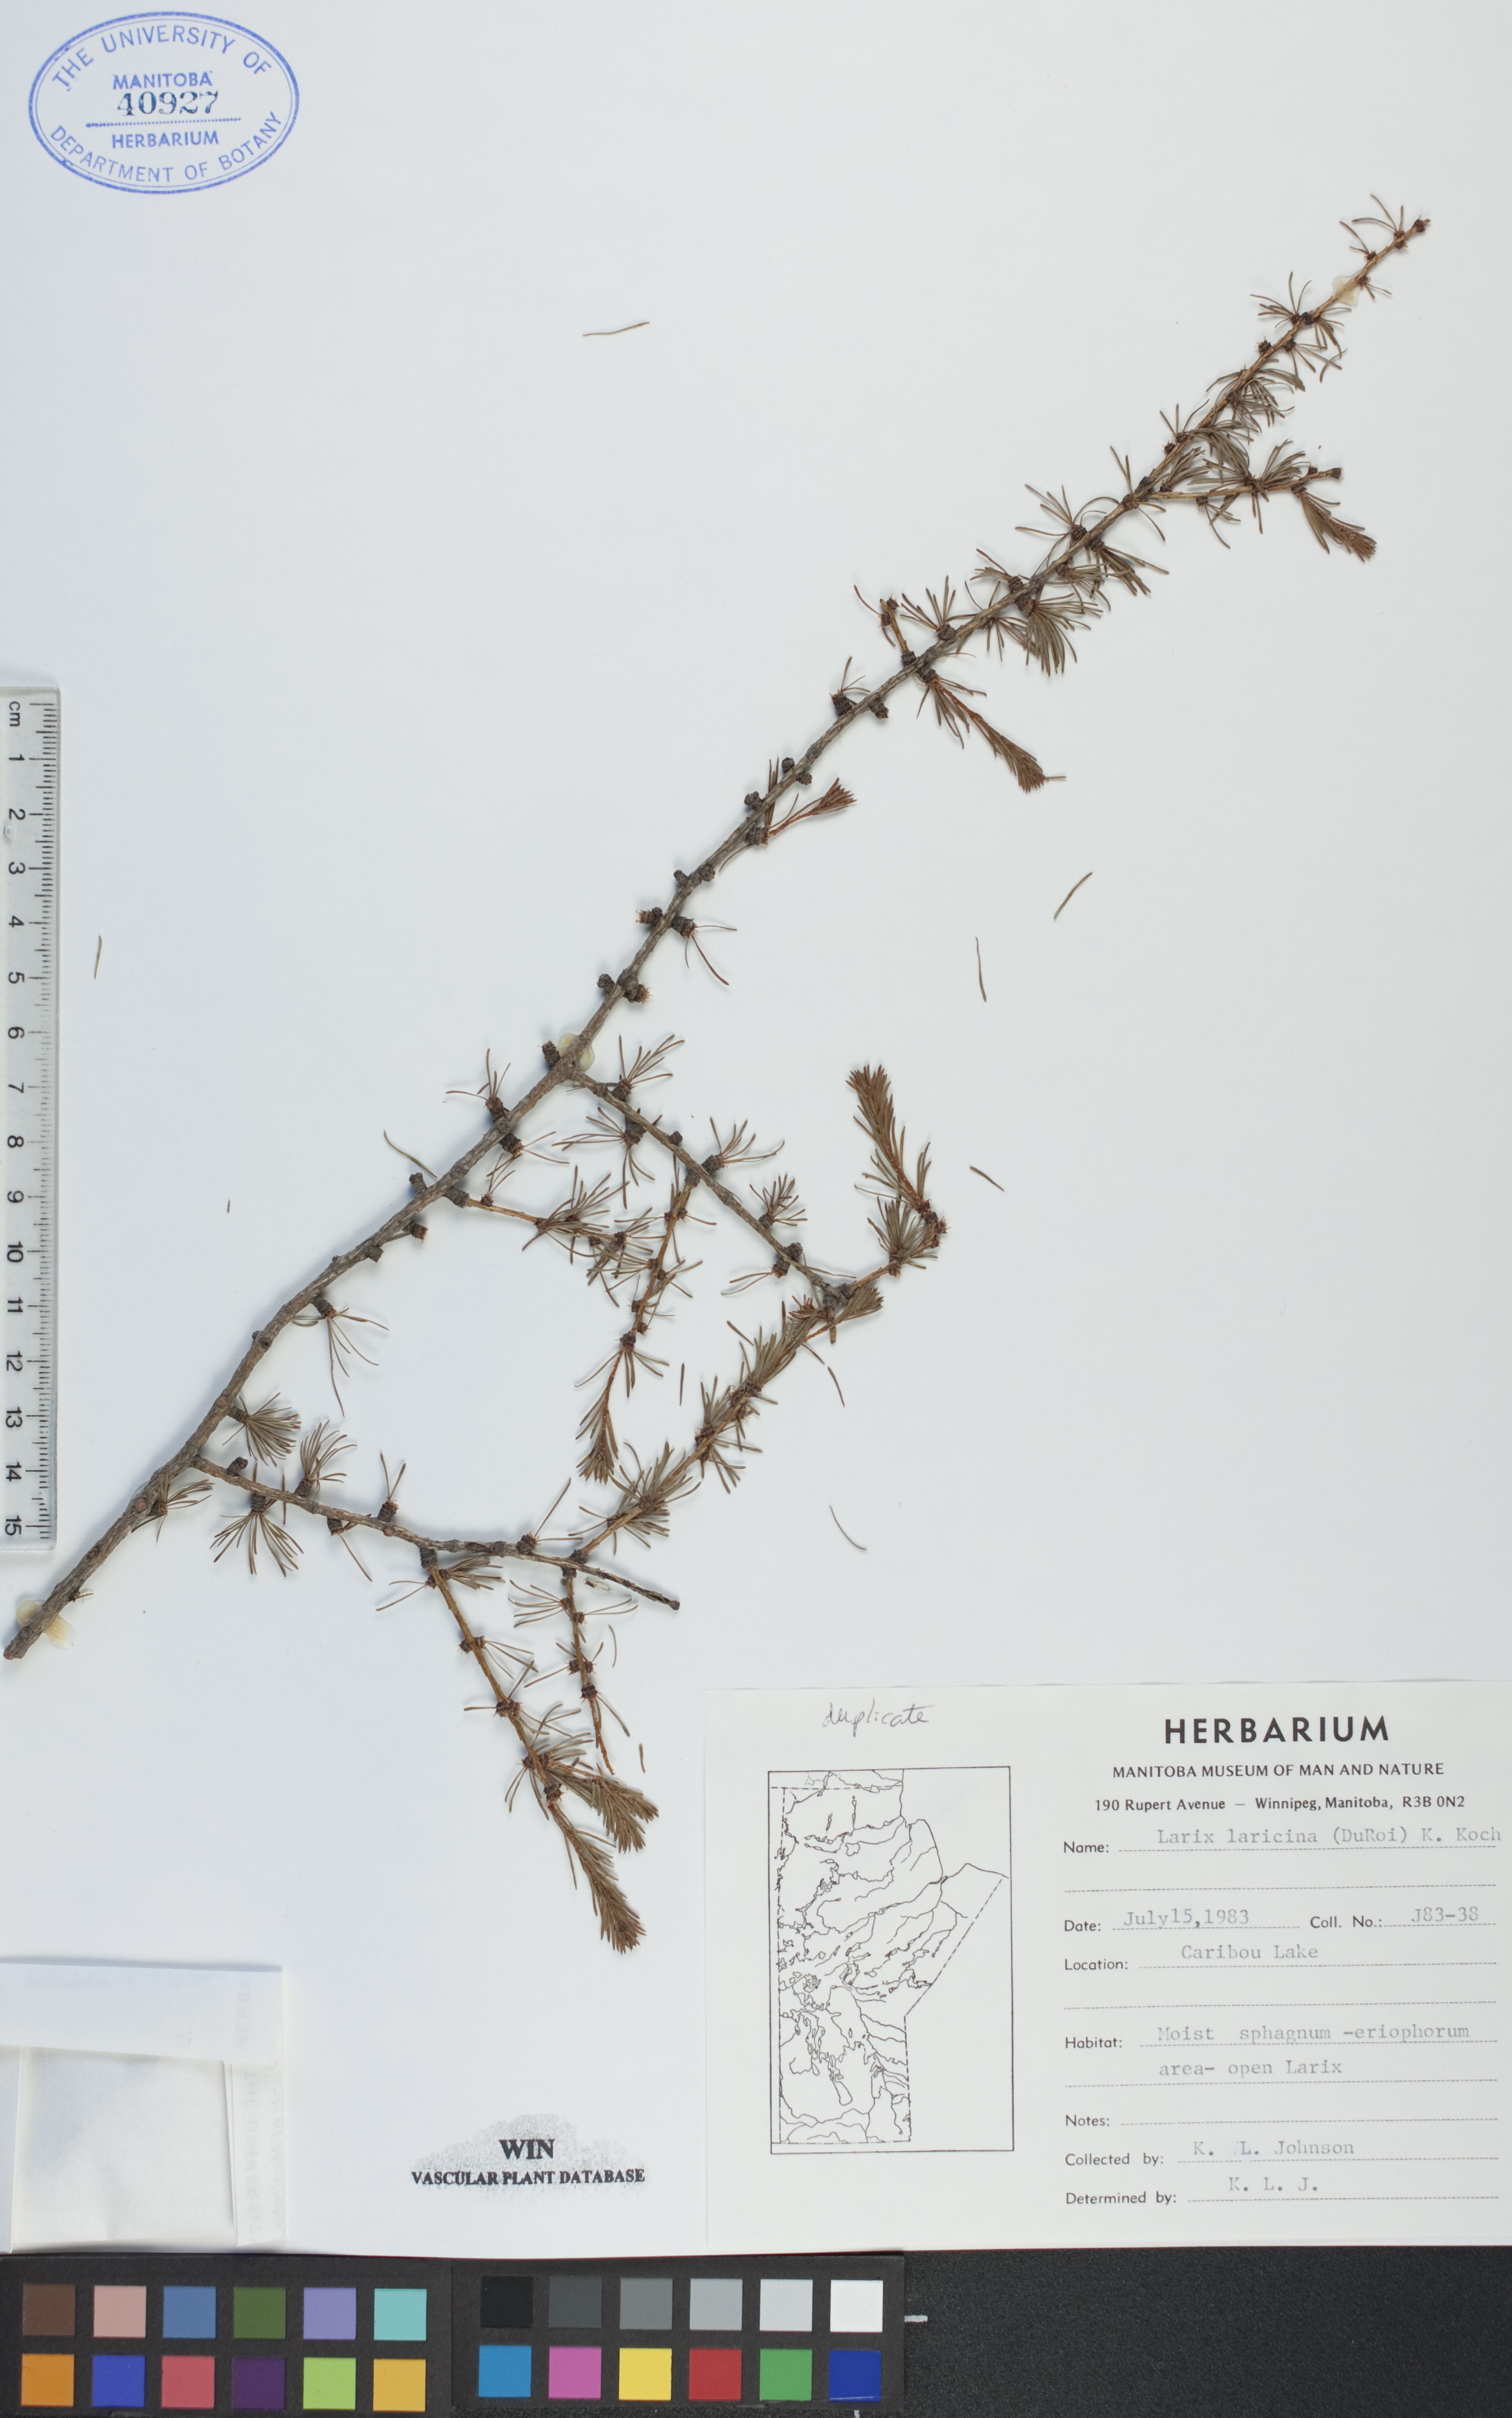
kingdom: Plantae
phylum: Tracheophyta
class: Pinopsida
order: Pinales
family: Pinaceae
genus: Larix
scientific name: Larix laricina
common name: American larch
